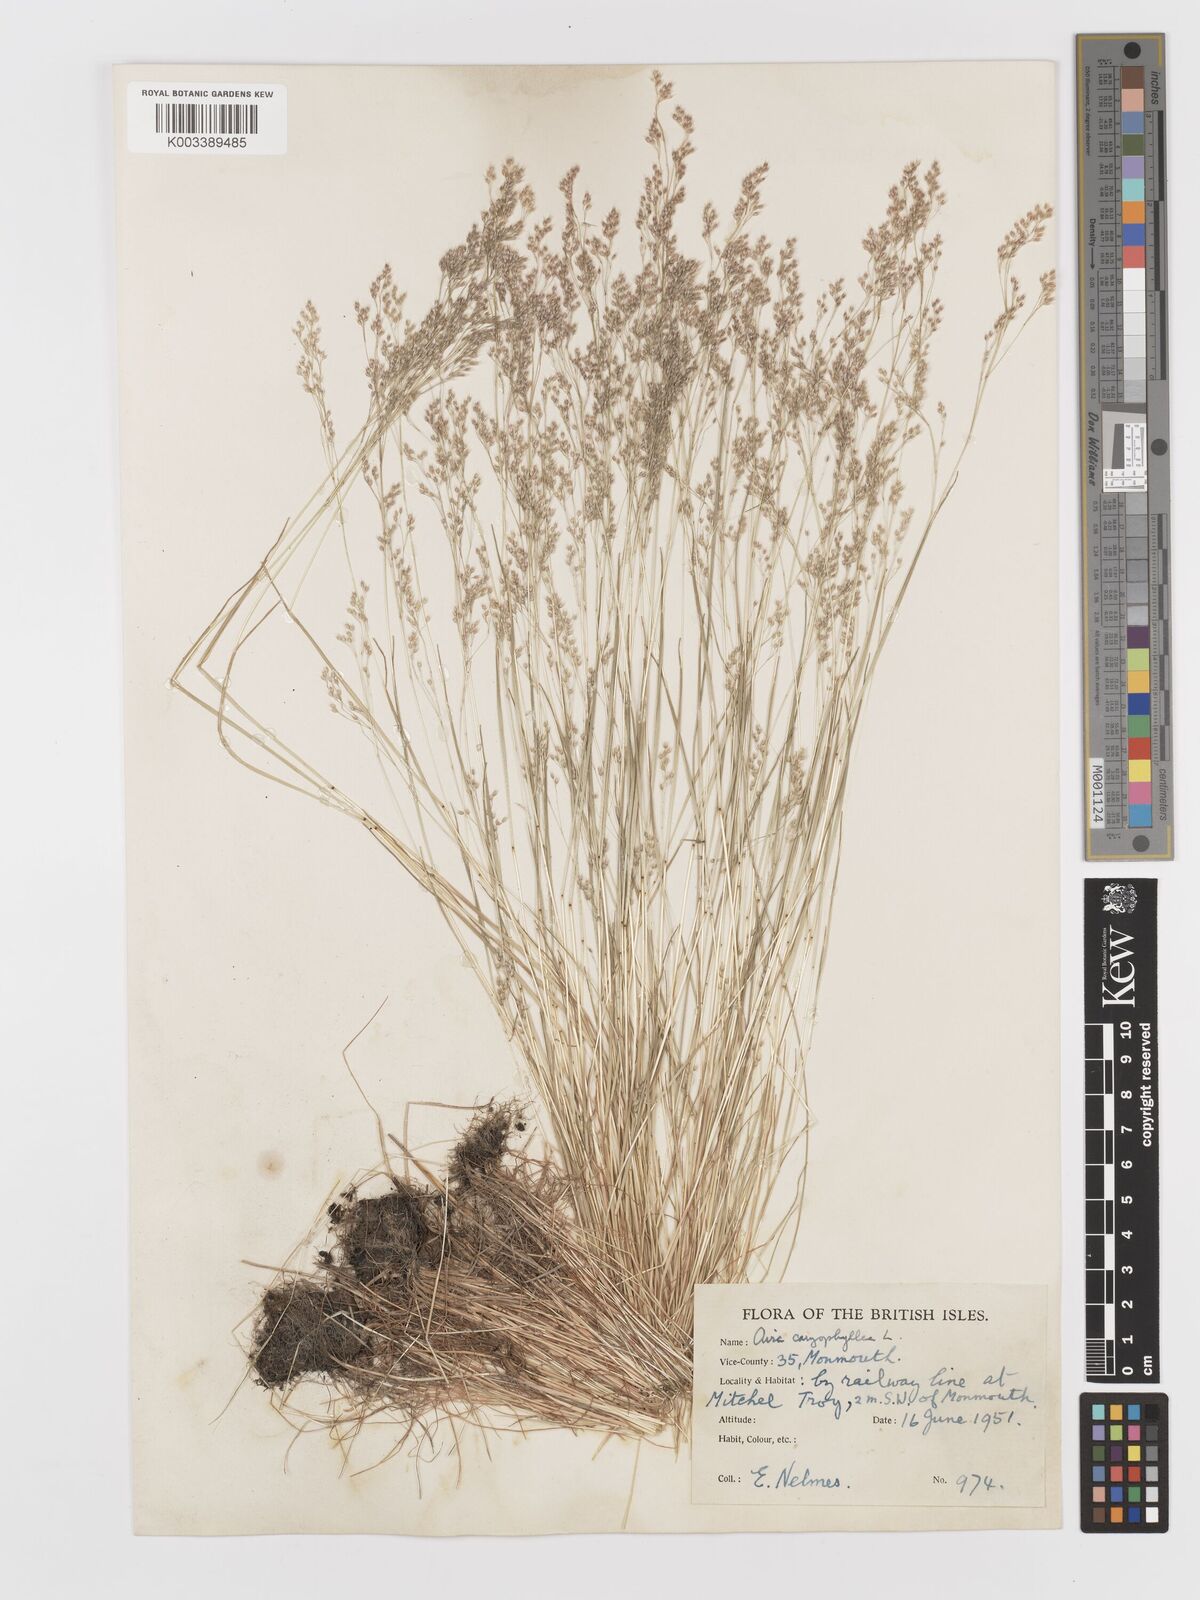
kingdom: Plantae
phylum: Tracheophyta
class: Liliopsida
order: Poales
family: Poaceae
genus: Aira
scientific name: Aira caryophyllea
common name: Silver hairgrass
